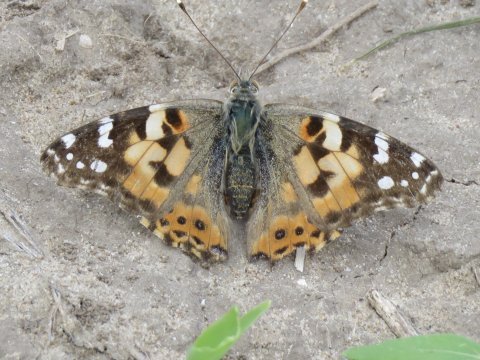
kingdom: Animalia
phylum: Arthropoda
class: Insecta
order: Lepidoptera
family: Nymphalidae
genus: Vanessa
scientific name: Vanessa cardui
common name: Painted Lady
